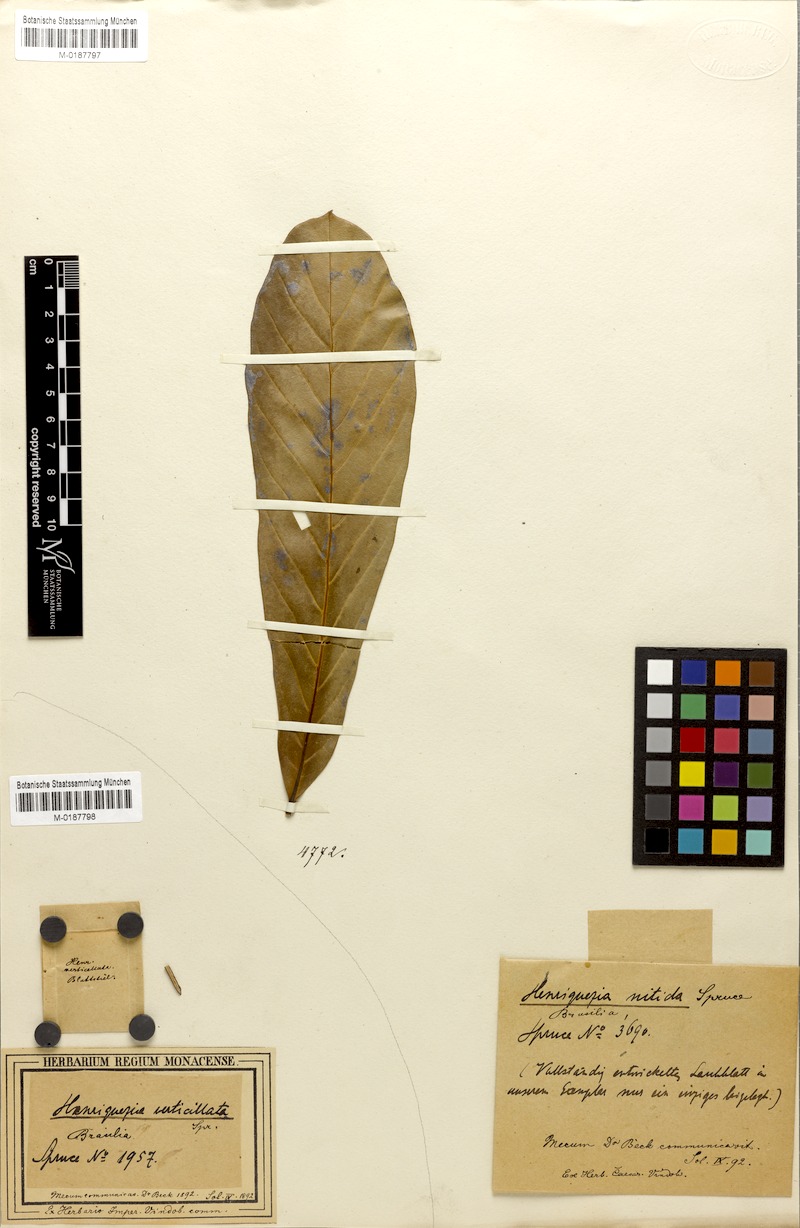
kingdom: Plantae
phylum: Tracheophyta
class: Magnoliopsida
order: Gentianales
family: Rubiaceae
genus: Henriquezia
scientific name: Henriquezia verticillata
